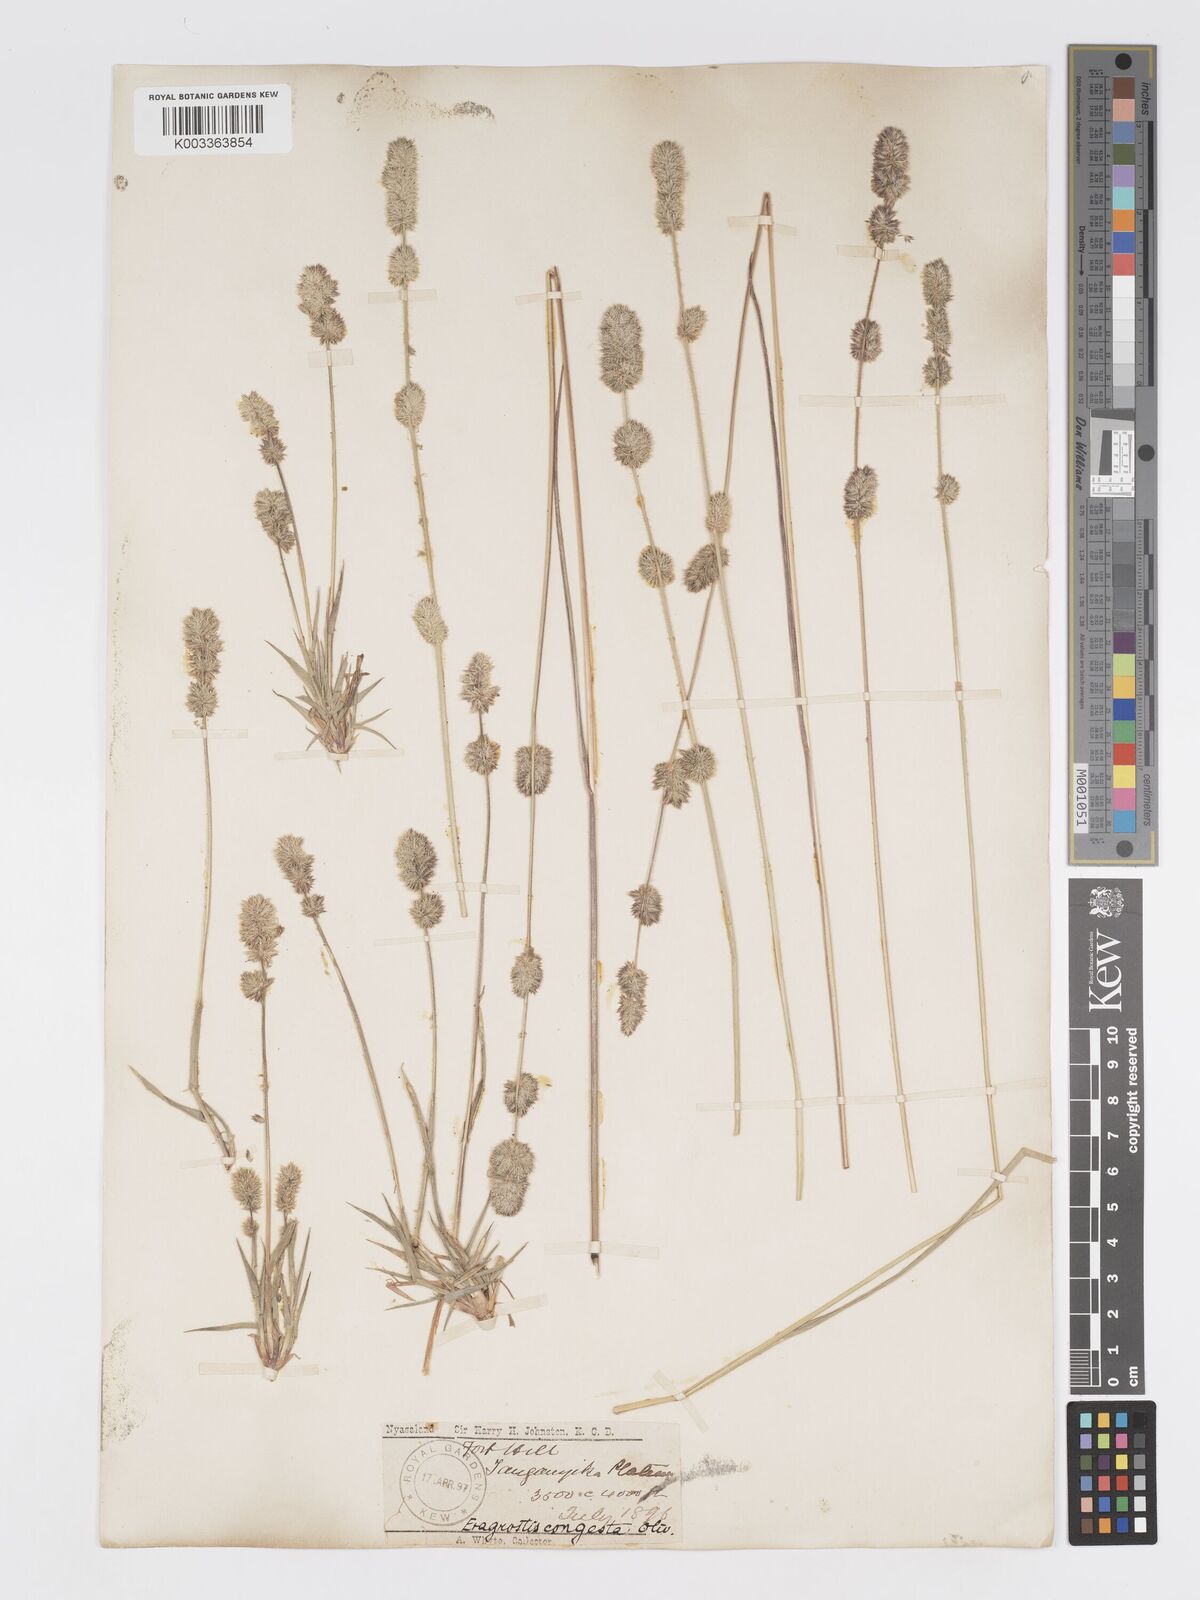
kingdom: Plantae
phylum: Tracheophyta
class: Liliopsida
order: Poales
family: Poaceae
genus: Eragrostis
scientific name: Eragrostis congesta
